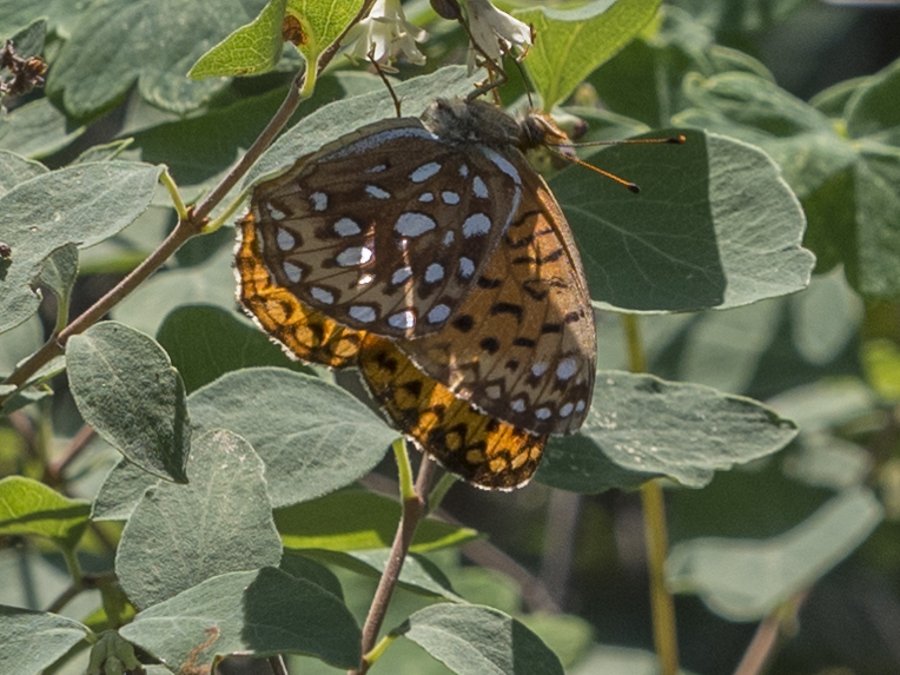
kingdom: Animalia
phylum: Arthropoda
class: Insecta
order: Lepidoptera
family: Nymphalidae
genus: Speyeria
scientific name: Speyeria atlantis
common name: Atlantis Fritillary
